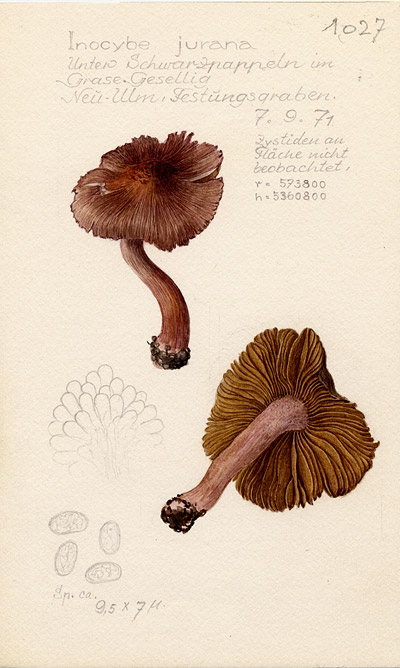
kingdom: Fungi
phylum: Basidiomycota
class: Agaricomycetes
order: Agaricales
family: Inocybaceae
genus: Inosperma
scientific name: Inosperma adaequatum
